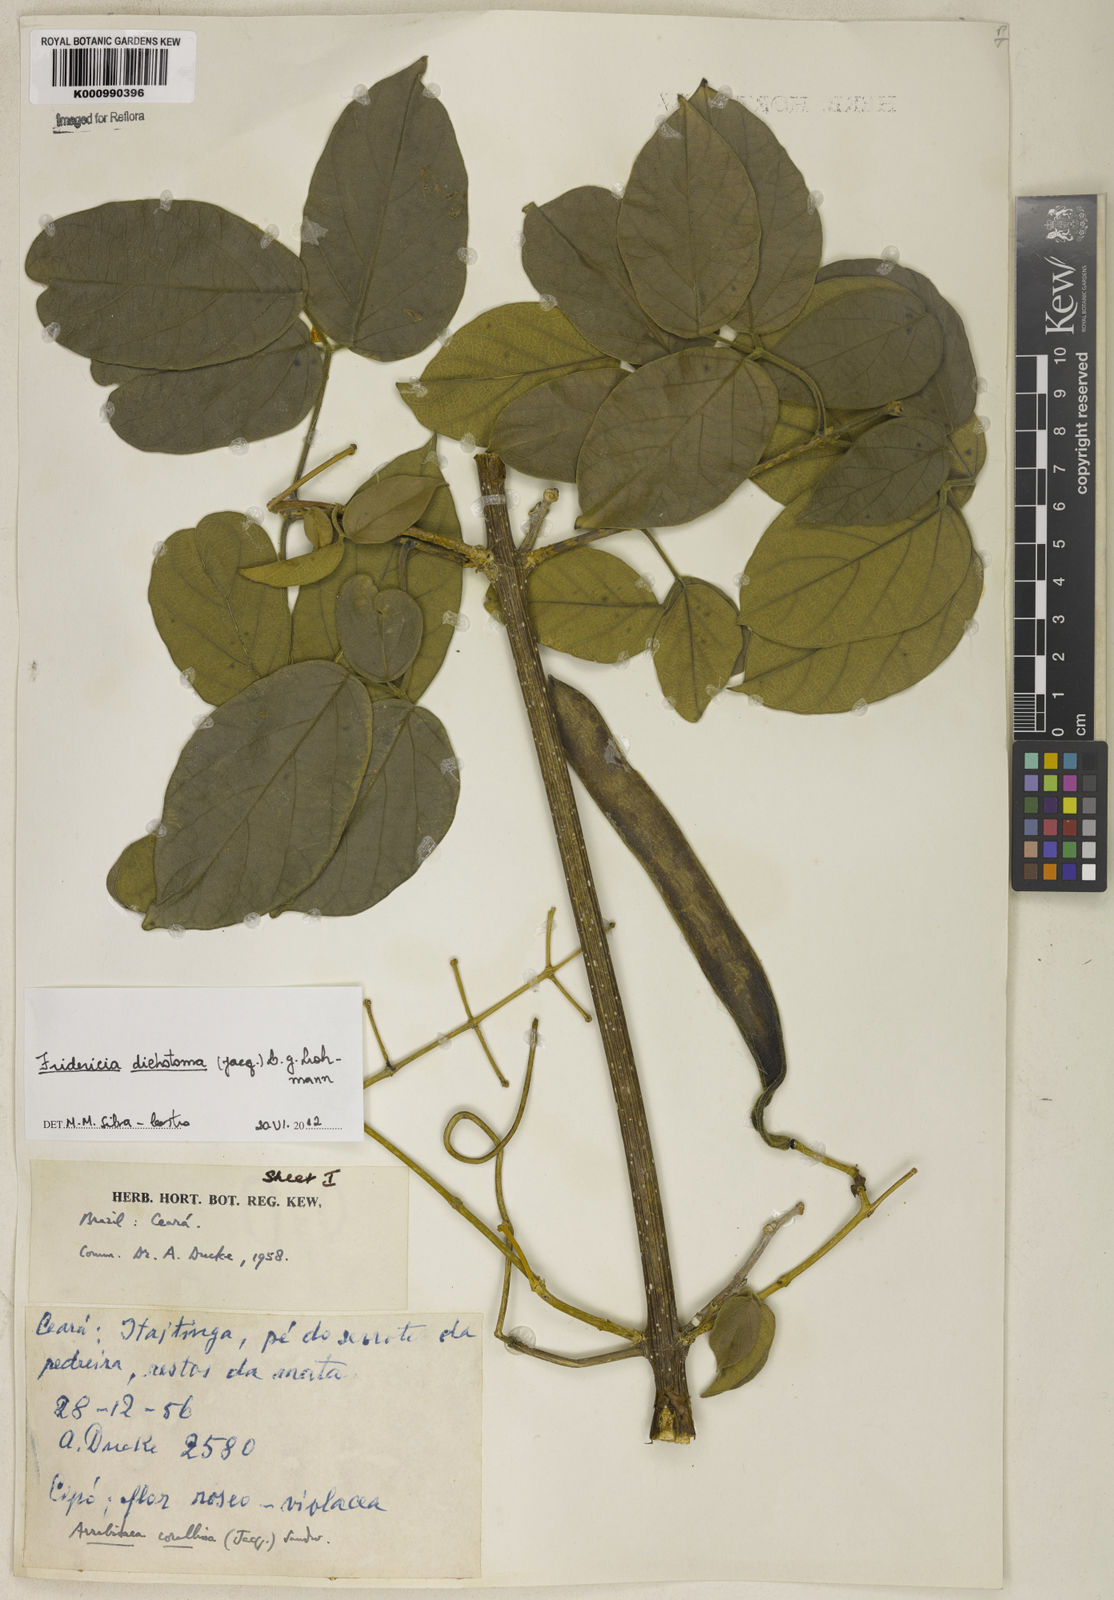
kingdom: Plantae
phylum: Tracheophyta
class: Magnoliopsida
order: Lamiales
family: Bignoniaceae
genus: Tanaecium
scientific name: Tanaecium dichotomum
